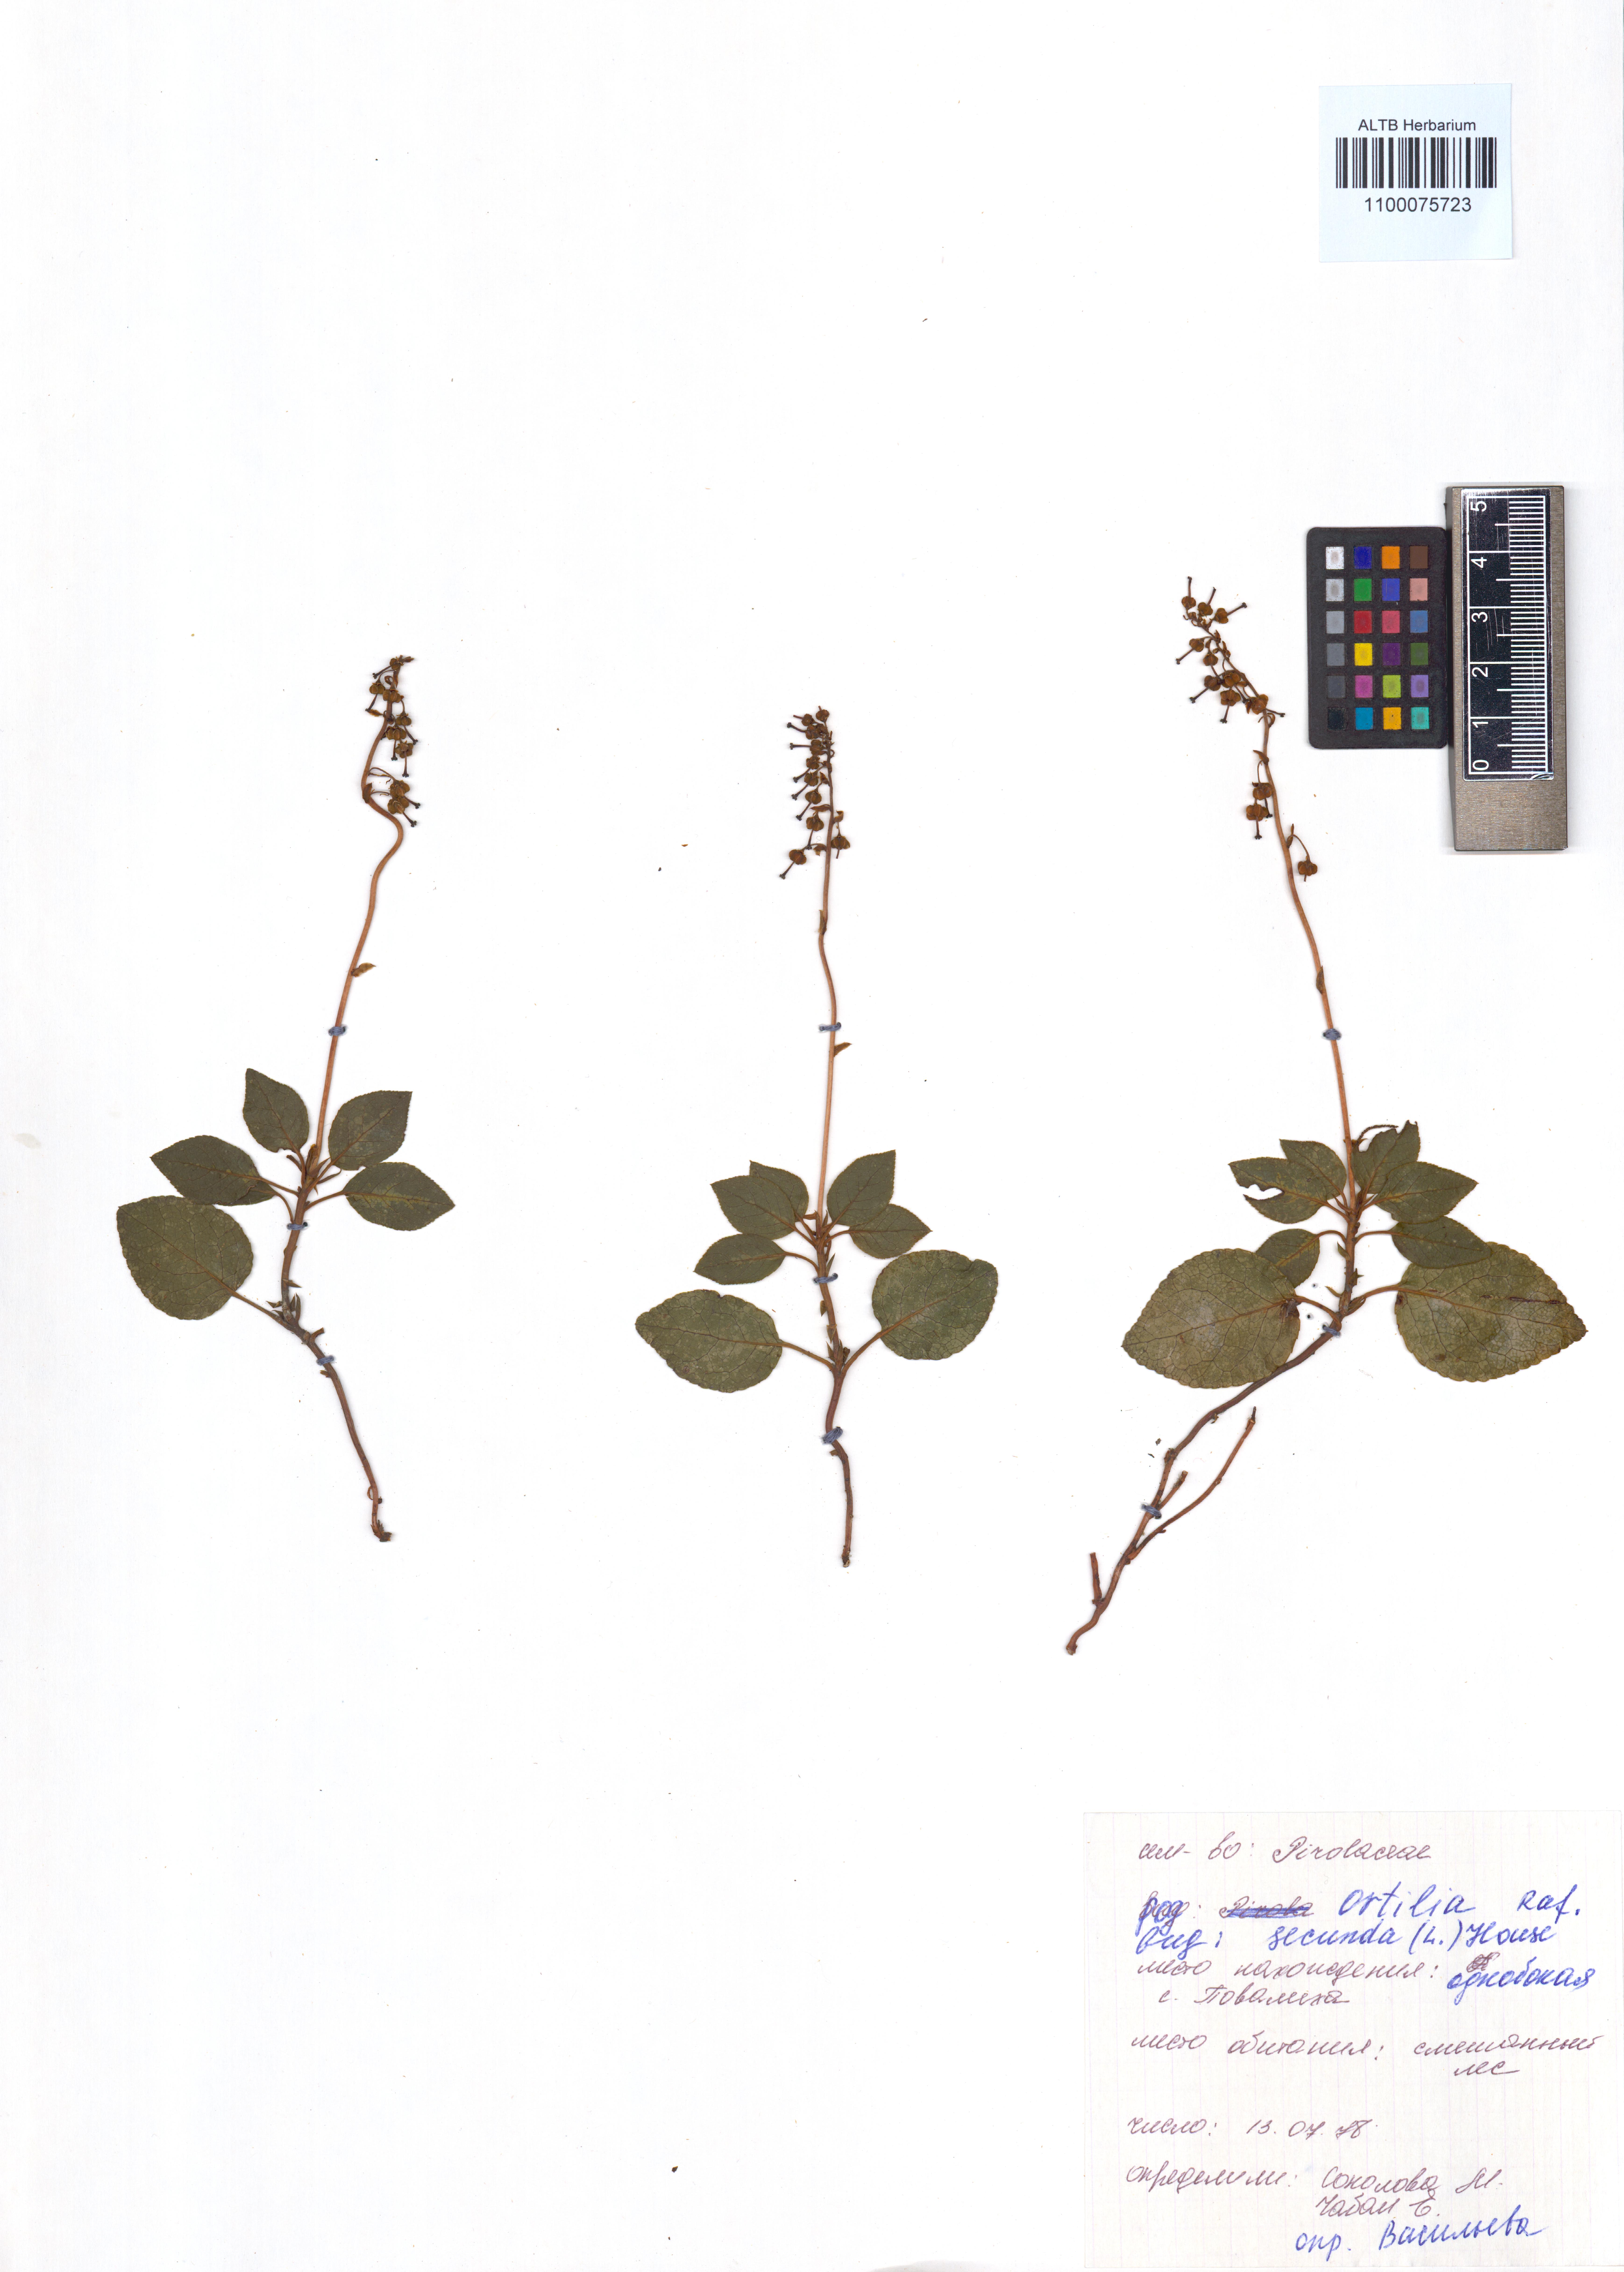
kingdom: Plantae
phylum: Tracheophyta
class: Magnoliopsida
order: Ericales
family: Ericaceae
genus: Orthilia
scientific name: Orthilia secunda
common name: One-sided orthilia
